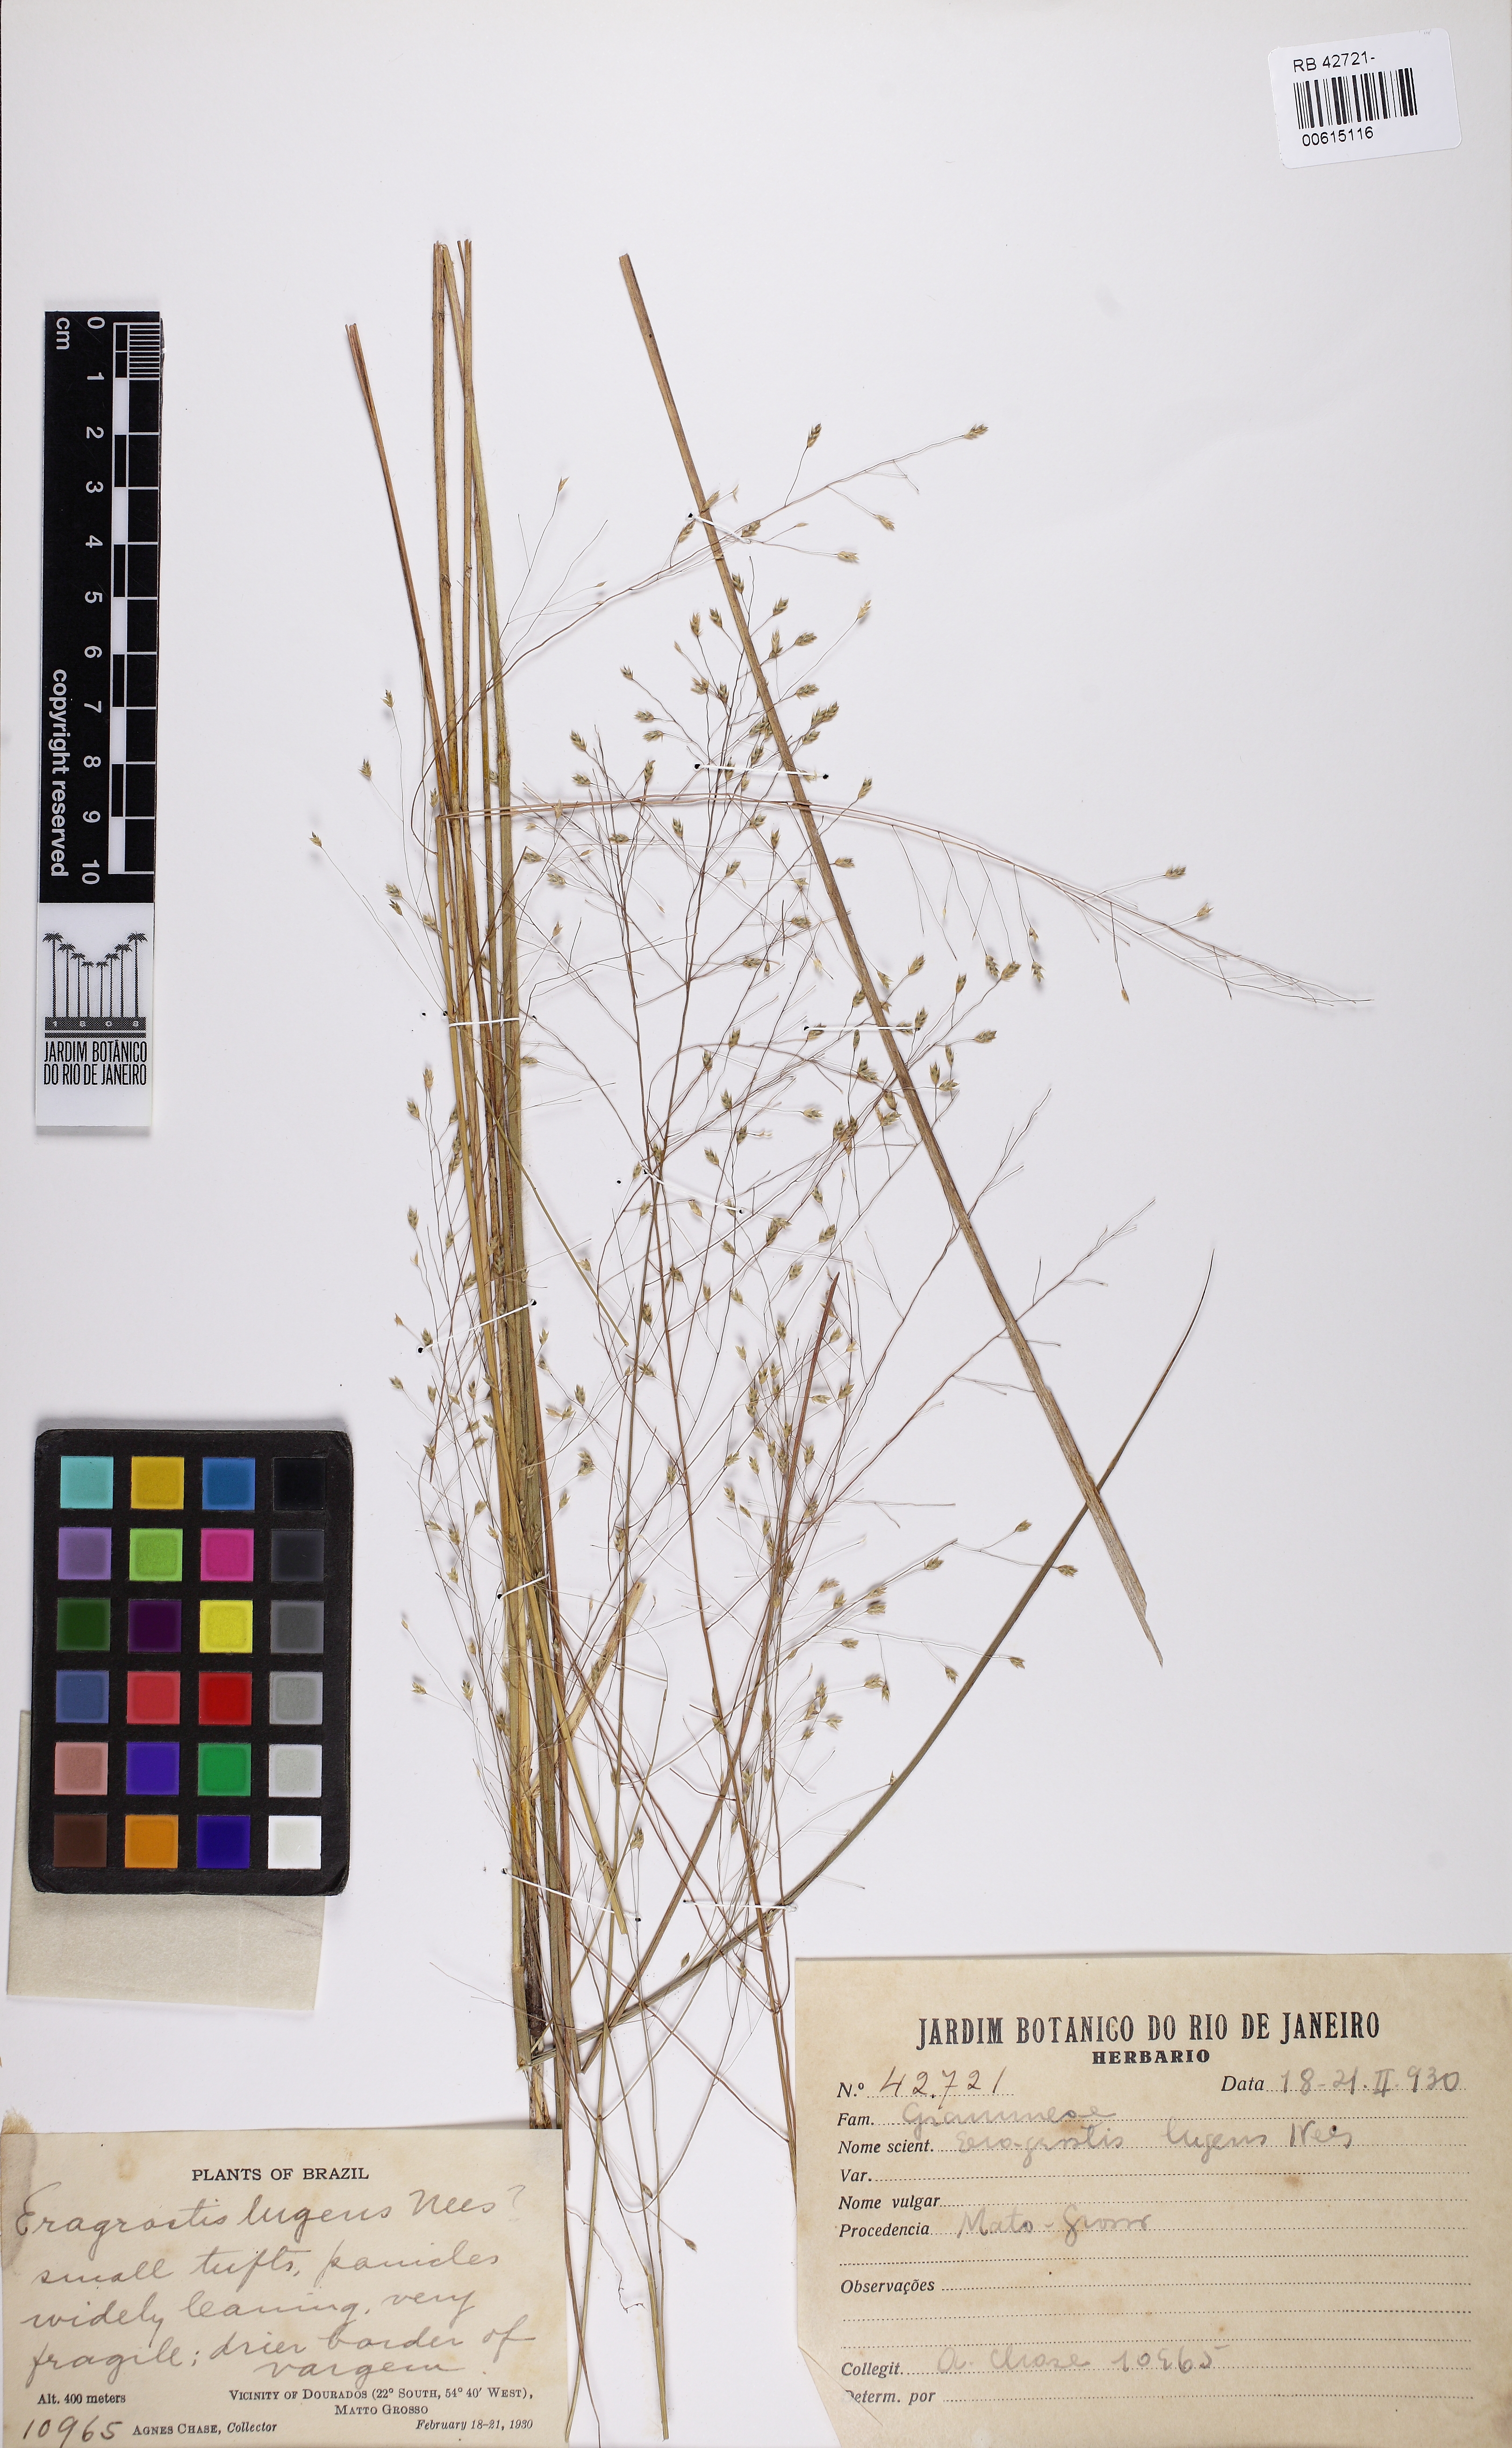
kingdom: Plantae
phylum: Tracheophyta
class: Liliopsida
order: Poales
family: Poaceae
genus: Eragrostis
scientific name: Eragrostis lugens
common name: Mourning love grass
